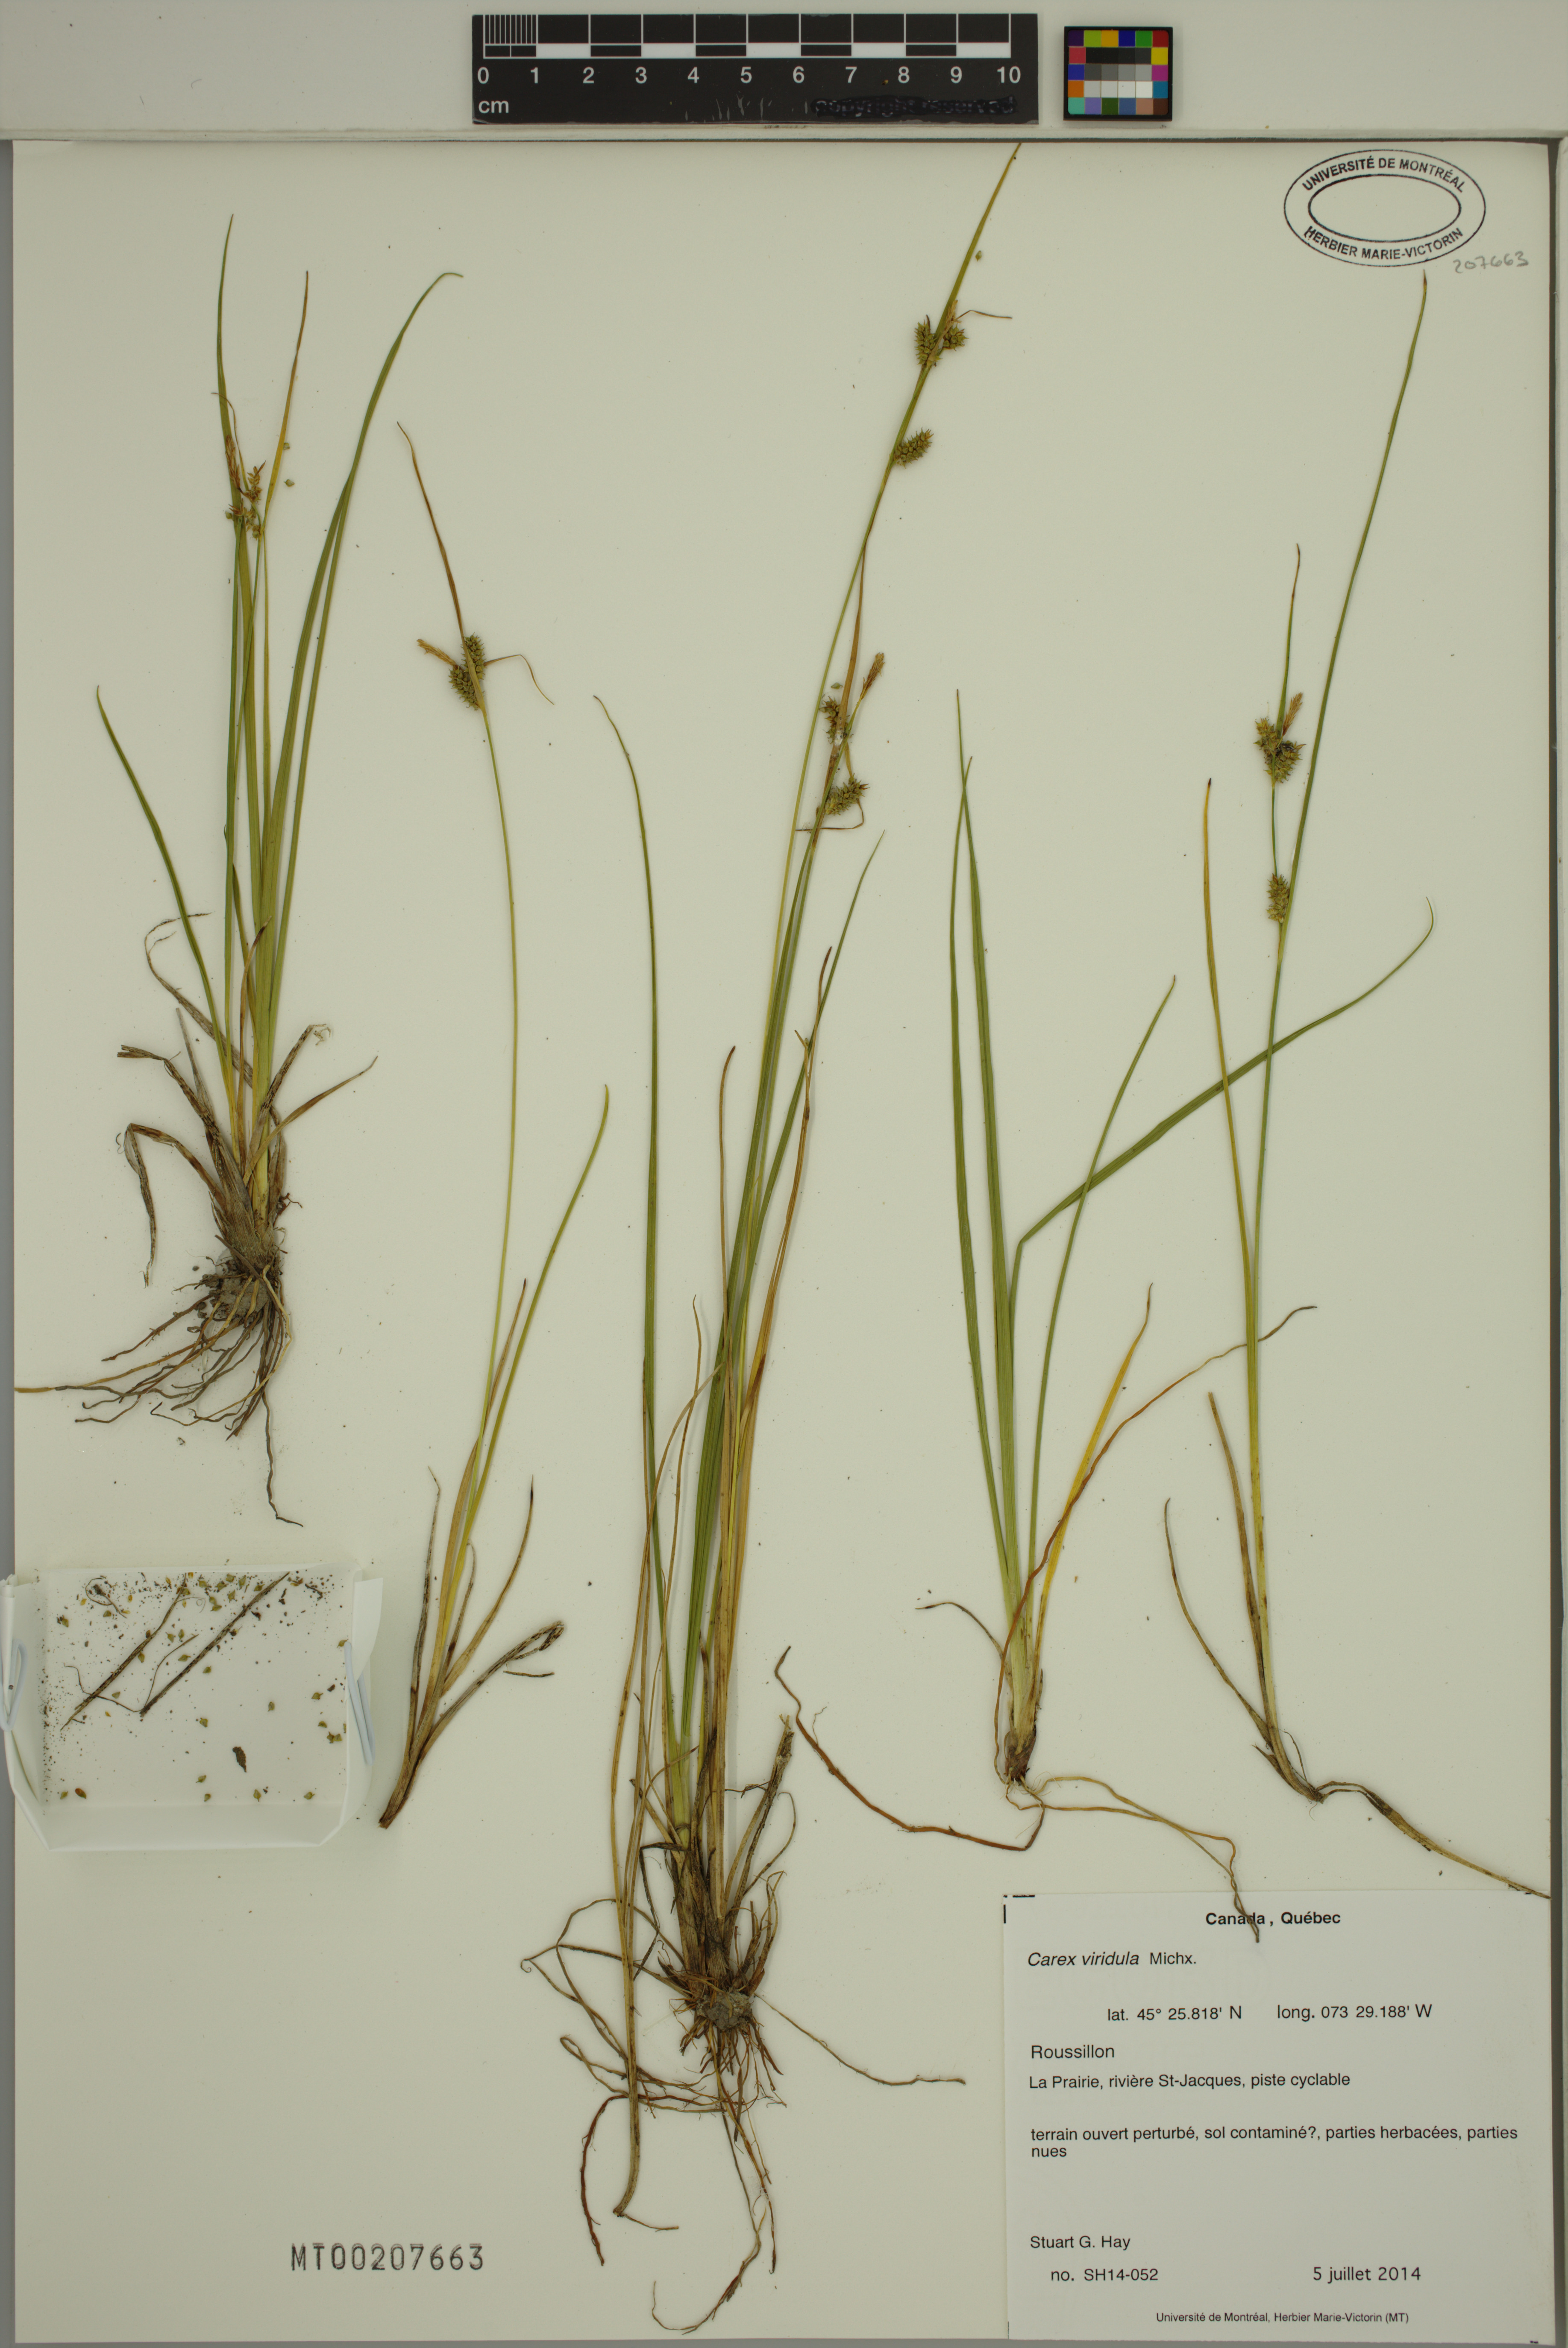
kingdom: Plantae
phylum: Tracheophyta
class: Liliopsida
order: Poales
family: Cyperaceae
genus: Carex
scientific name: Carex oederi
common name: Common & small-fruited yellow-sedge
